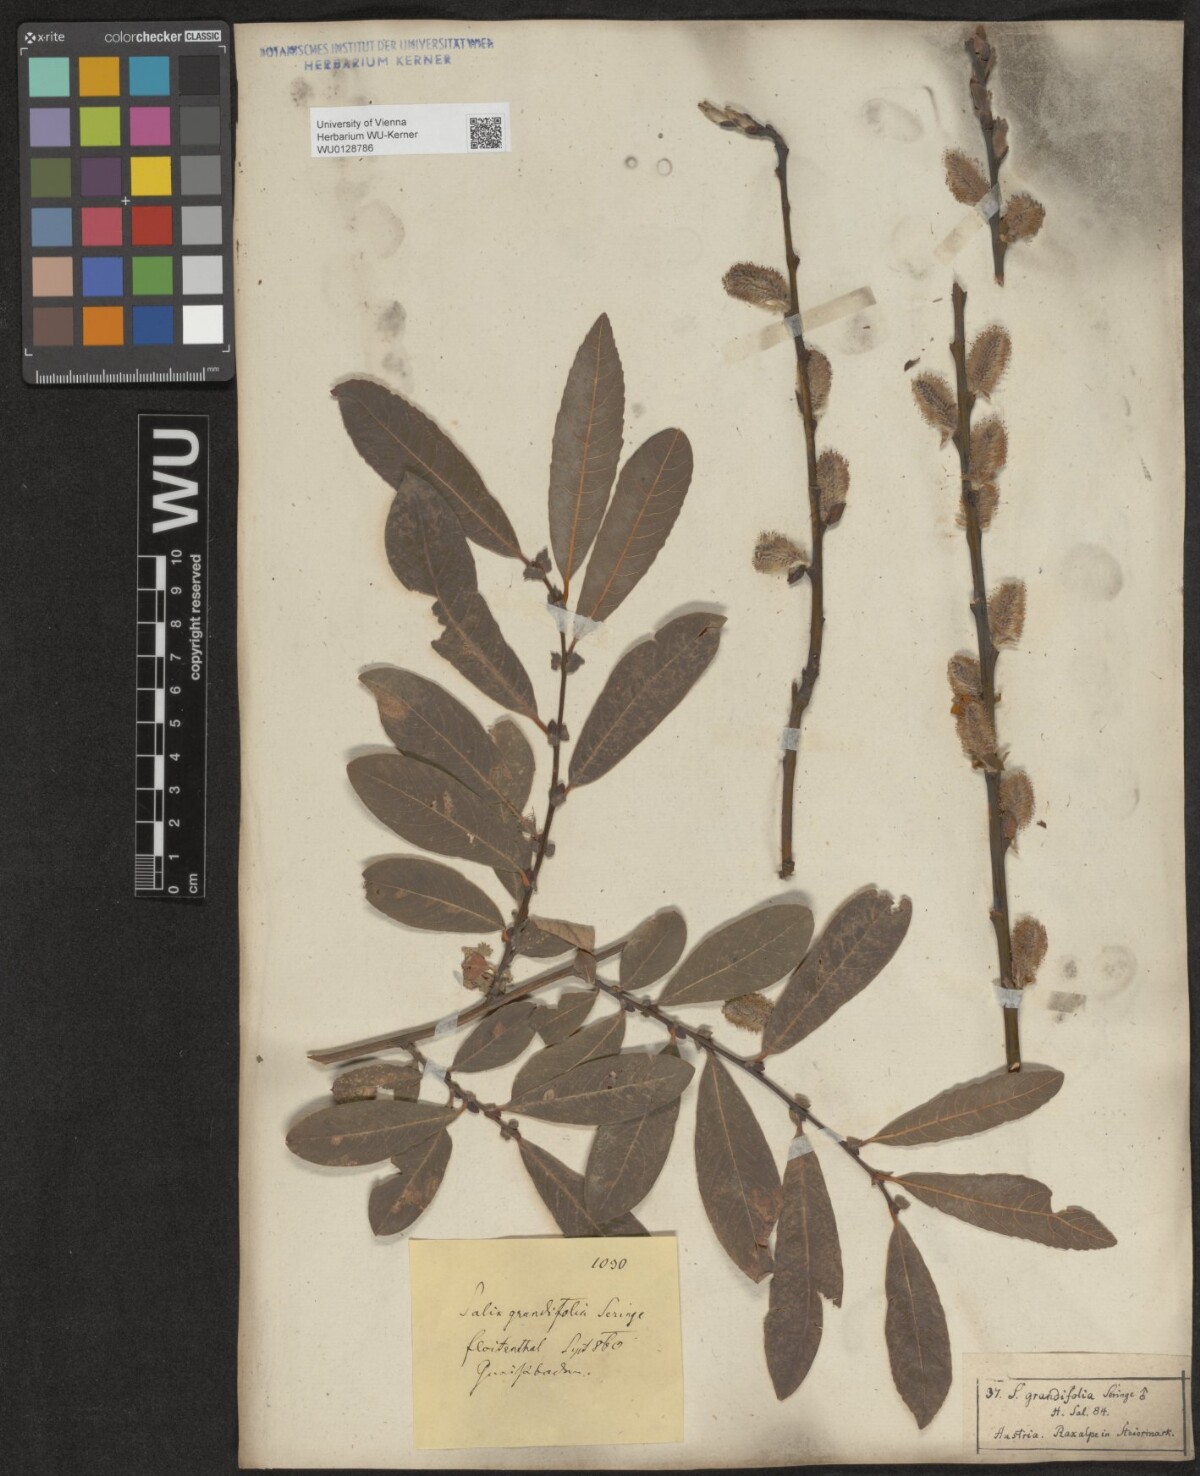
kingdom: Plantae
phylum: Tracheophyta
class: Magnoliopsida
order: Malpighiales
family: Salicaceae
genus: Salix
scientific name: Salix appendiculata
